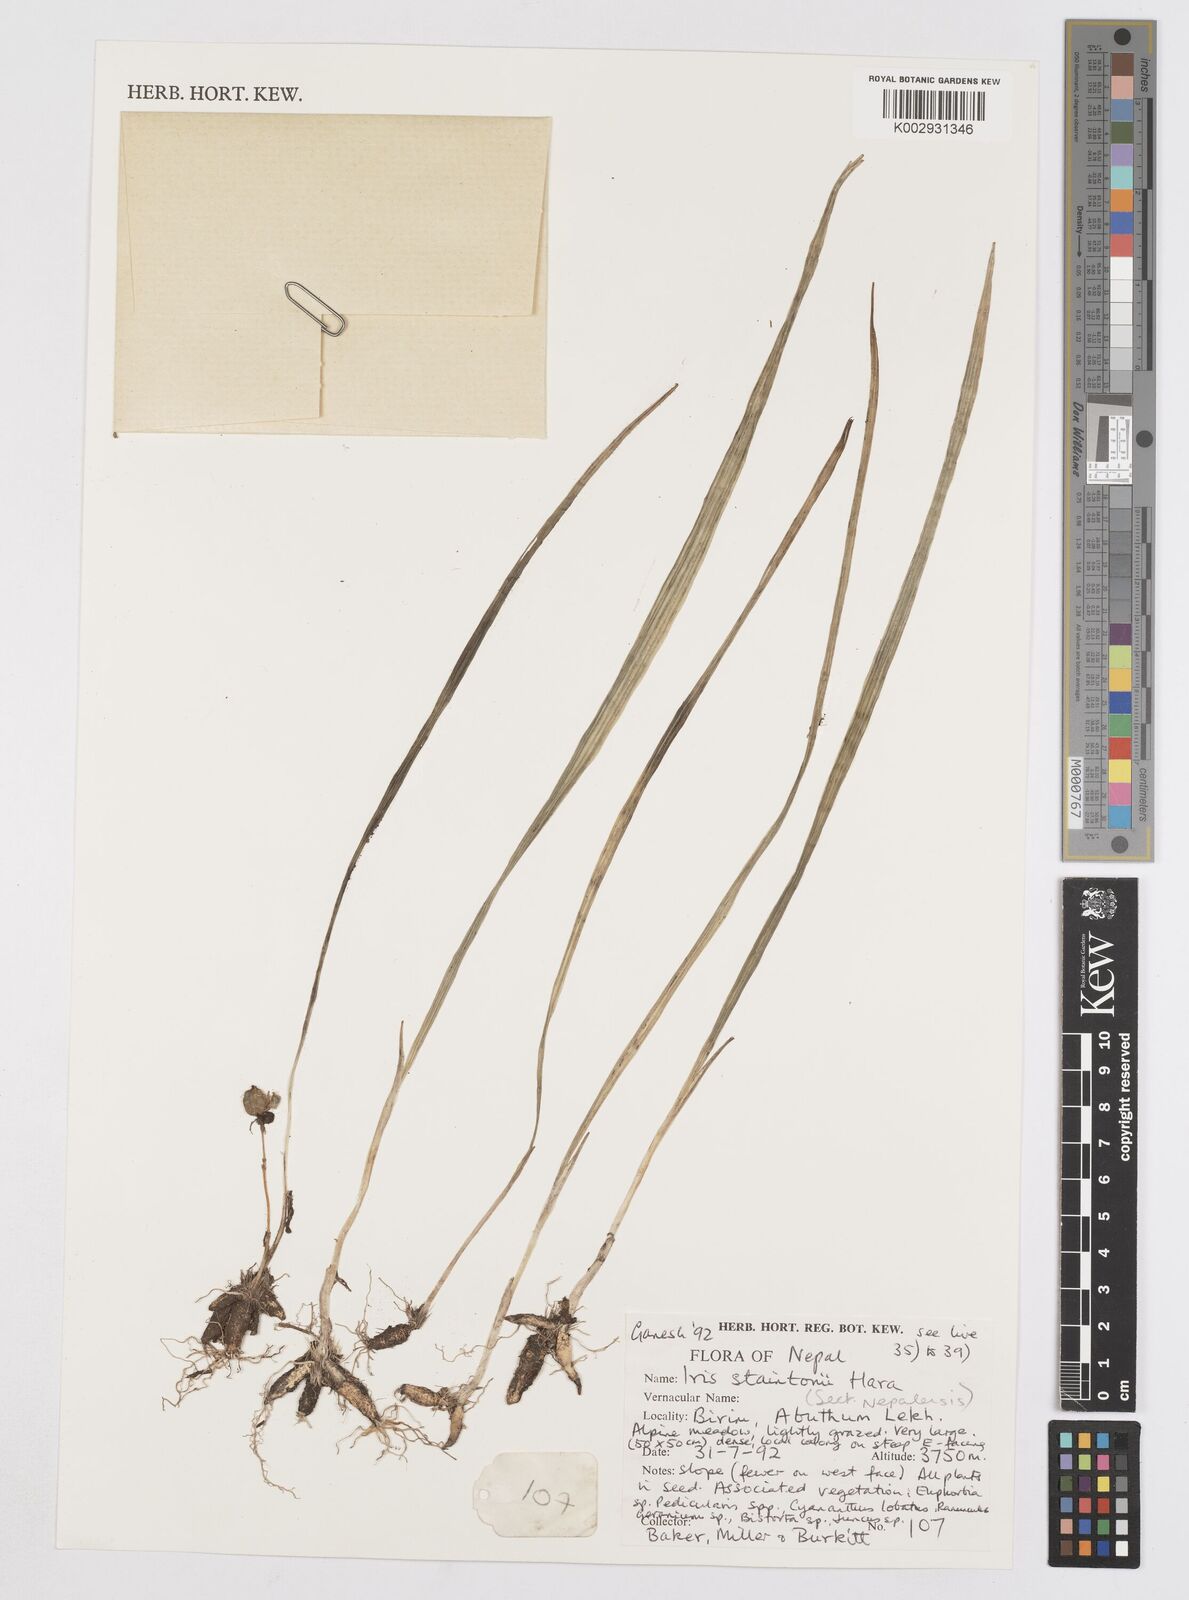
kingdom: Plantae
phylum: Tracheophyta
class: Liliopsida
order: Asparagales
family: Iridaceae
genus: Iris
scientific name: Iris staintonii
